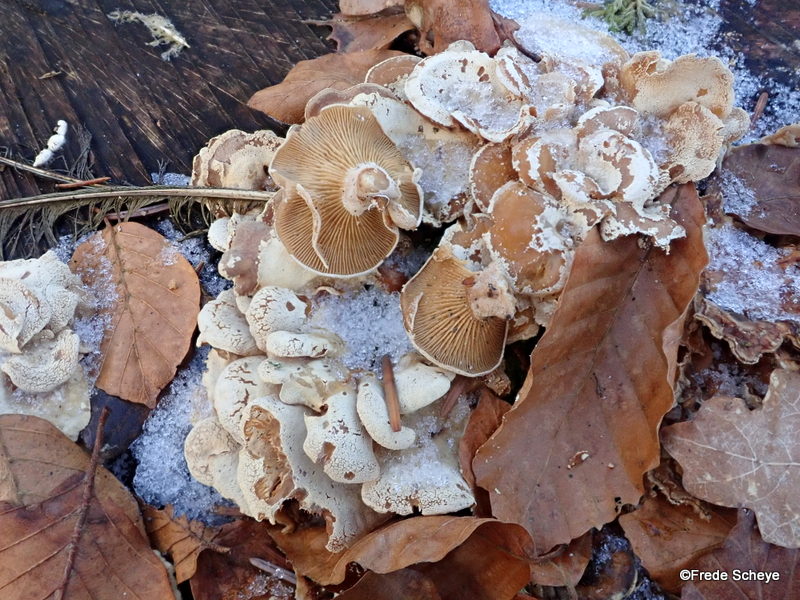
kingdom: Fungi
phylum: Basidiomycota
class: Agaricomycetes
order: Agaricales
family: Mycenaceae
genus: Panellus
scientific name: Panellus stipticus
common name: kliddet epaulethat
